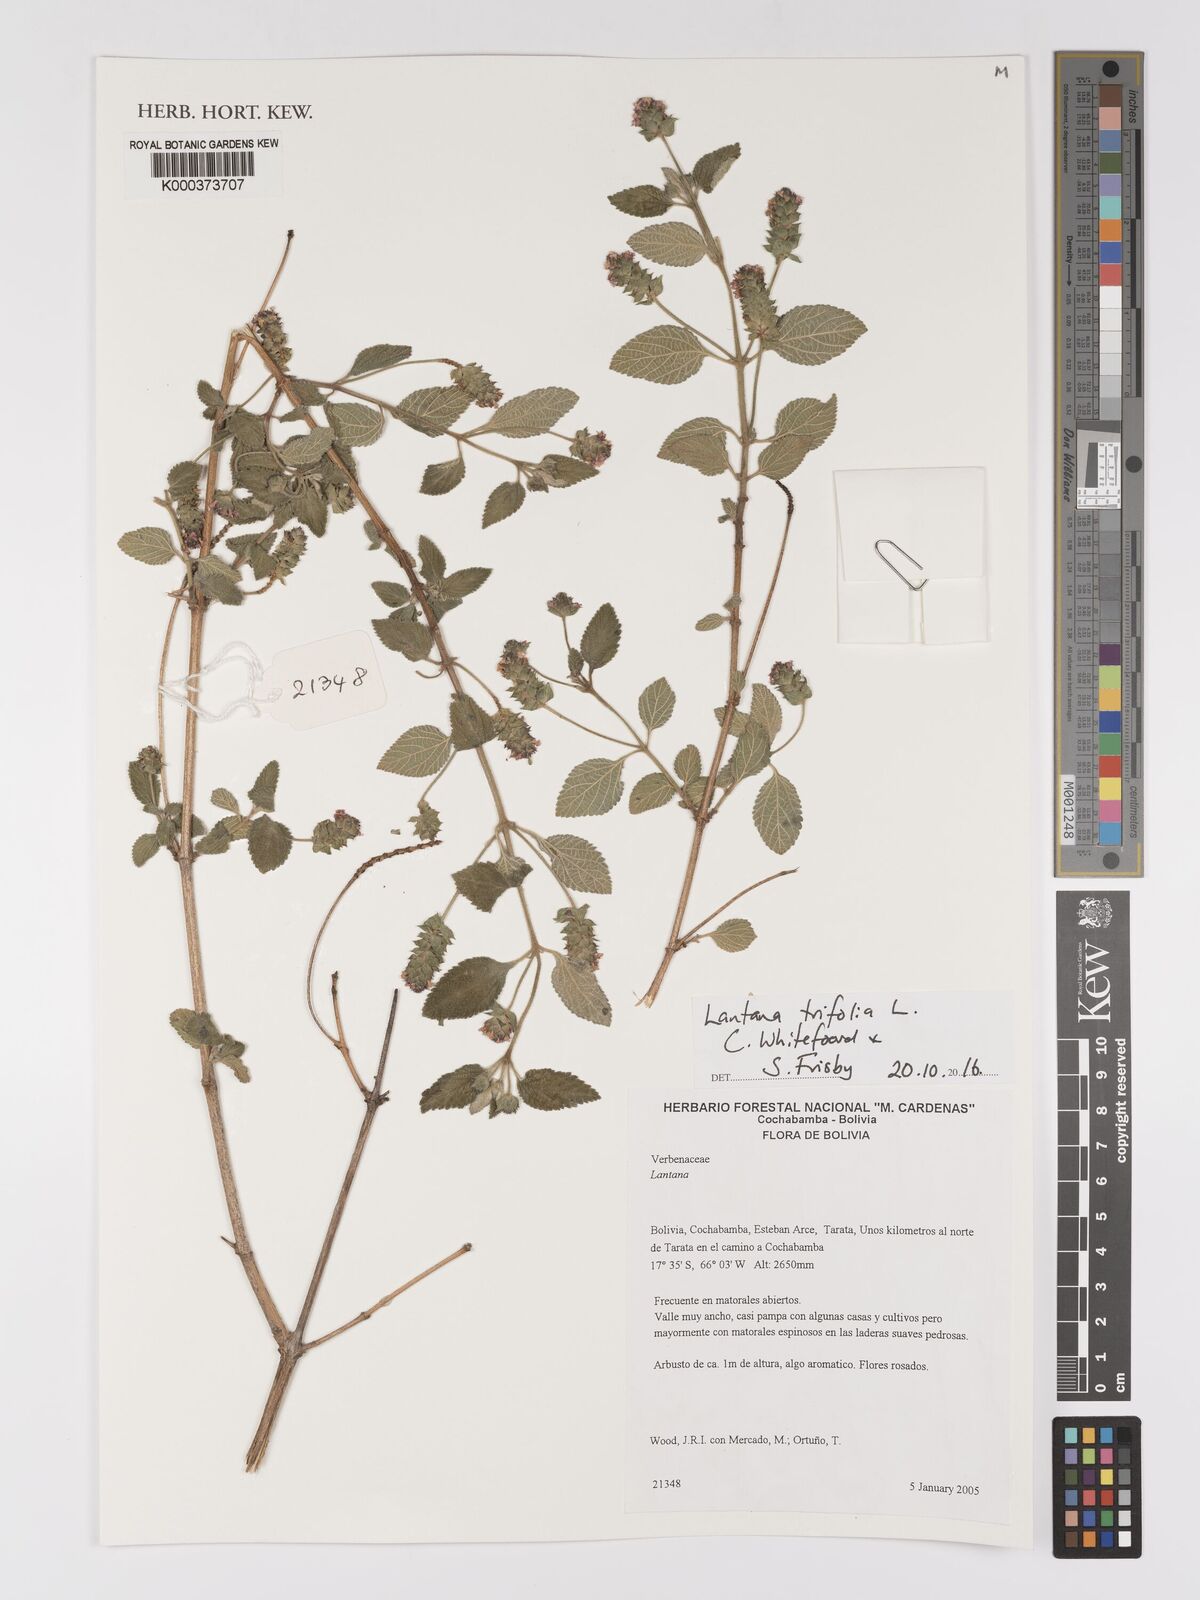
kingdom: Plantae
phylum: Tracheophyta
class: Magnoliopsida
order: Lamiales
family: Verbenaceae
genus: Lantana
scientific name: Lantana trifolia
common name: Sweet-sage
